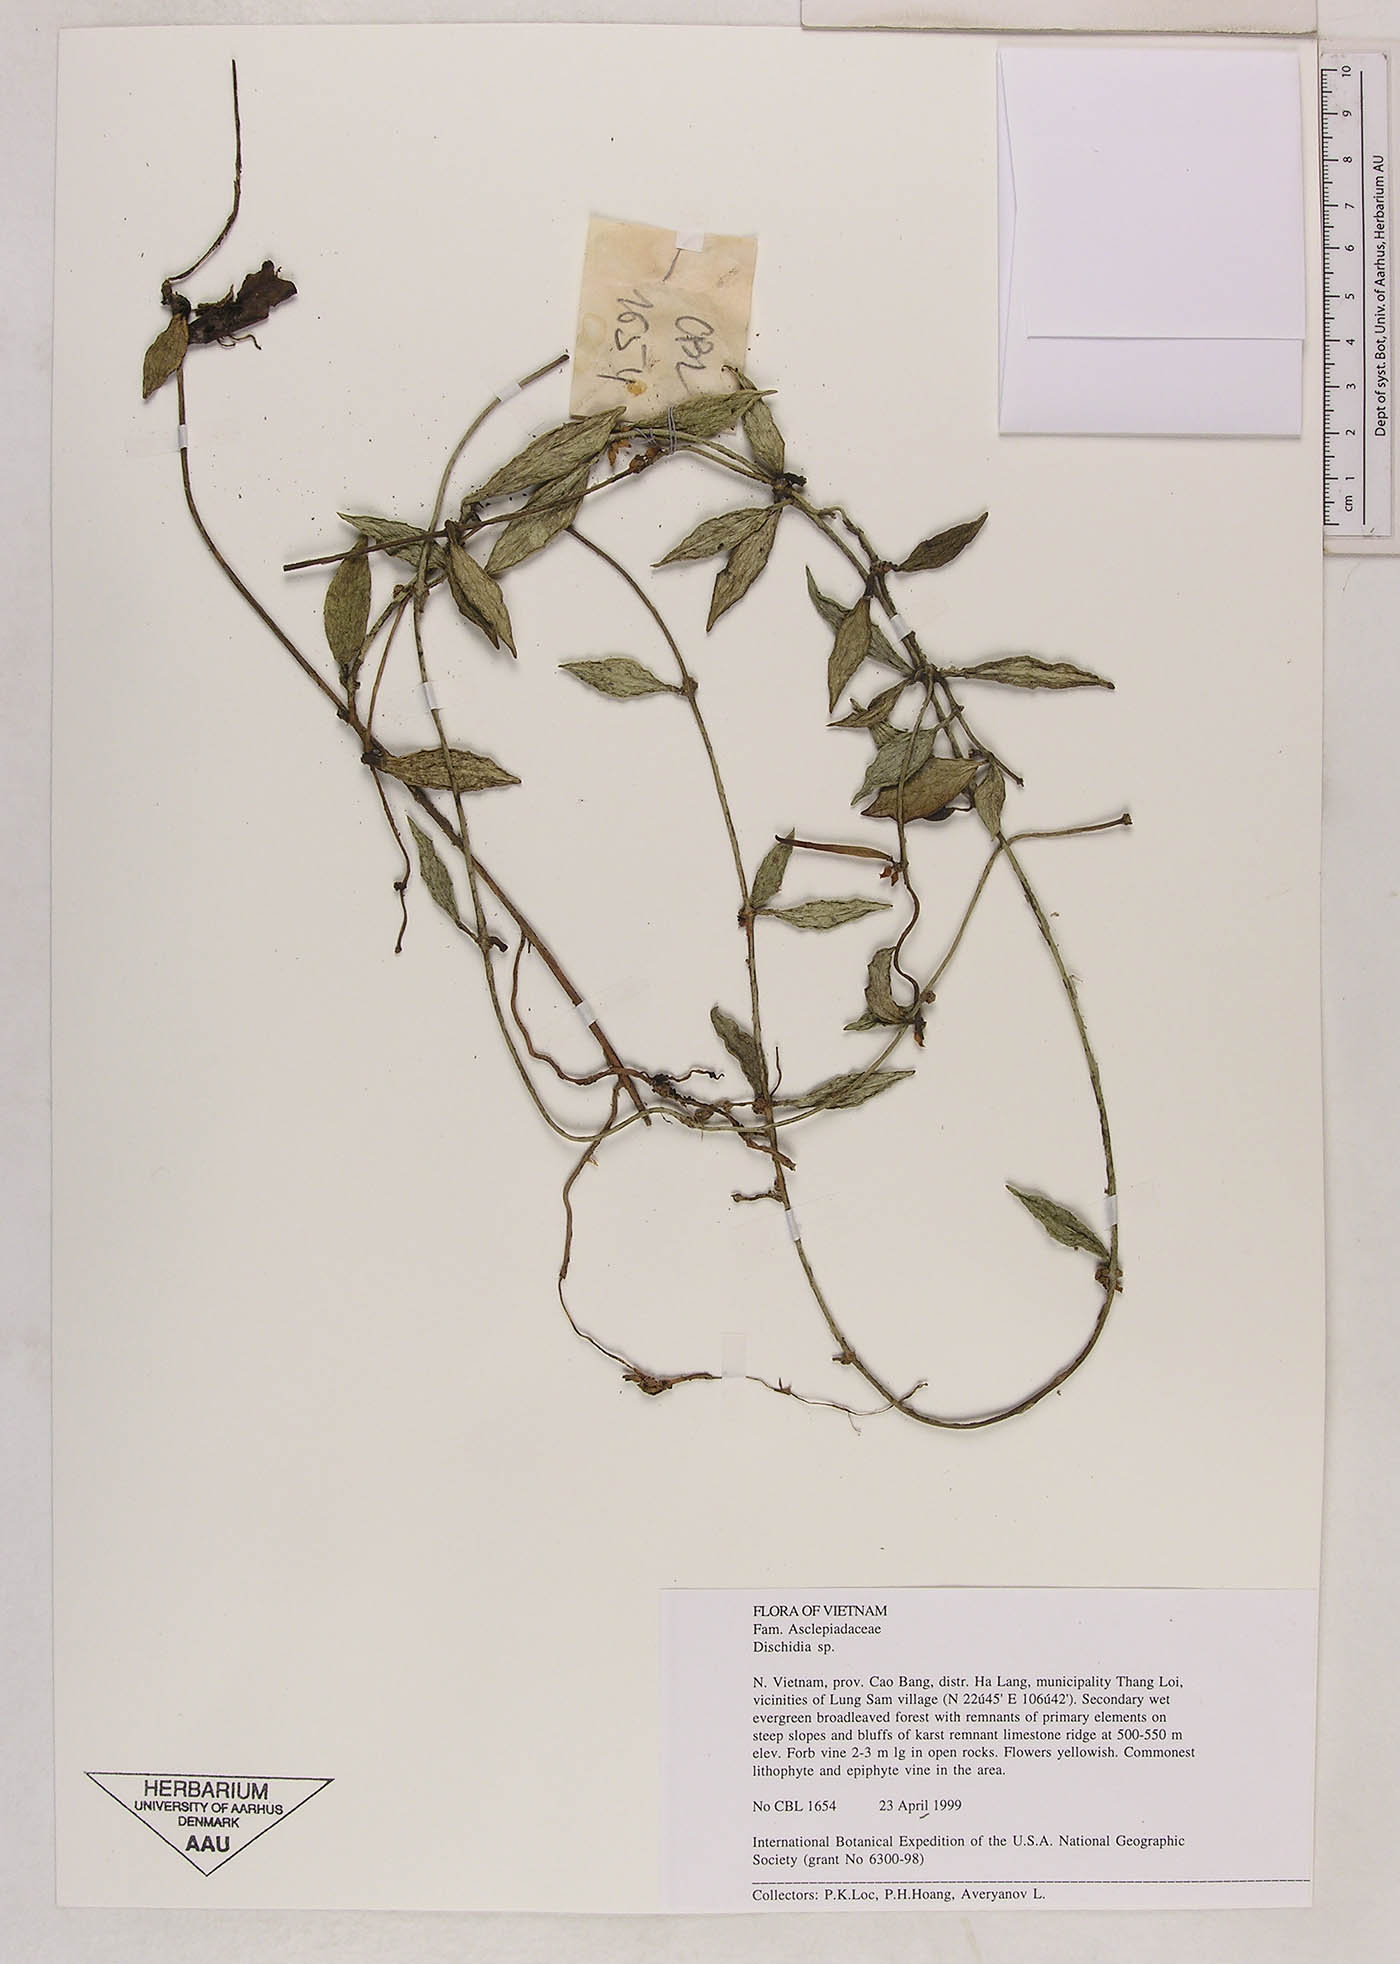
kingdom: Plantae
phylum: Tracheophyta
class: Magnoliopsida
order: Gentianales
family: Apocynaceae
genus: Dischidia
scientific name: Dischidia acuminata
